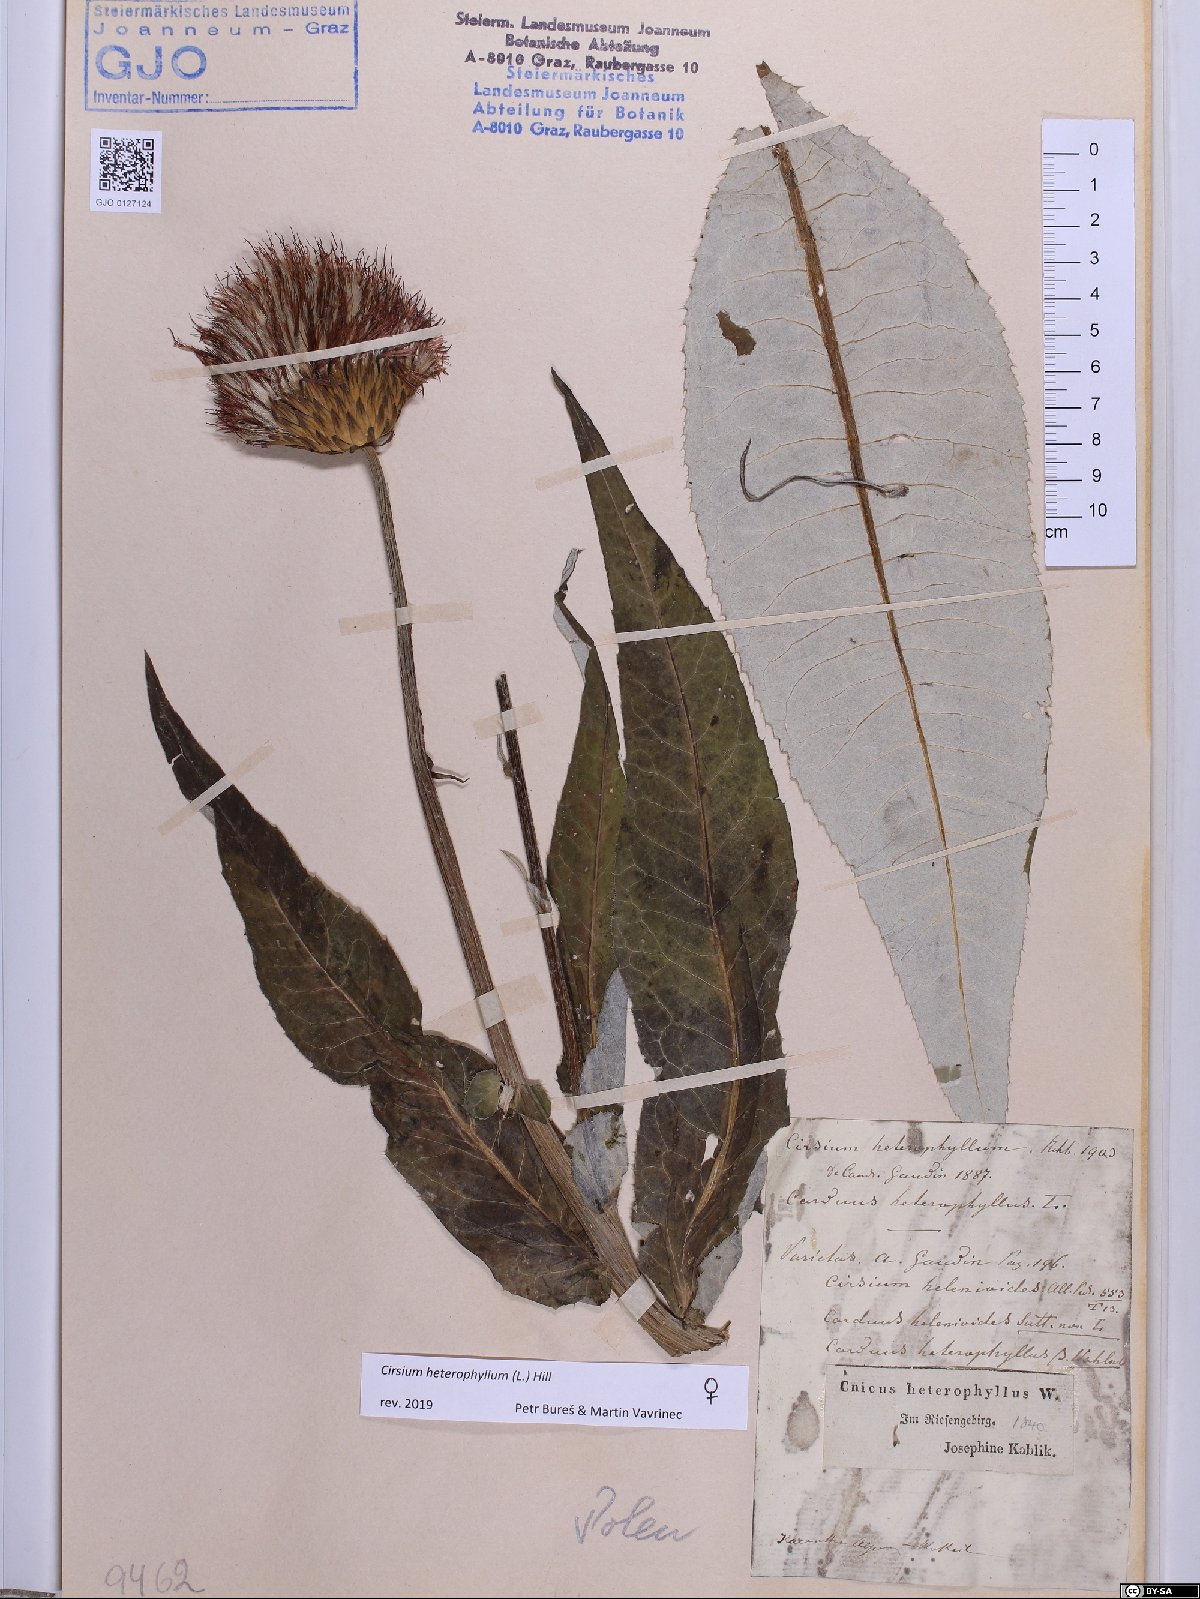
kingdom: Plantae
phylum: Tracheophyta
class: Magnoliopsida
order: Asterales
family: Asteraceae
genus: Cirsium
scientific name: Cirsium heterophyllum
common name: Melancholy thistle
